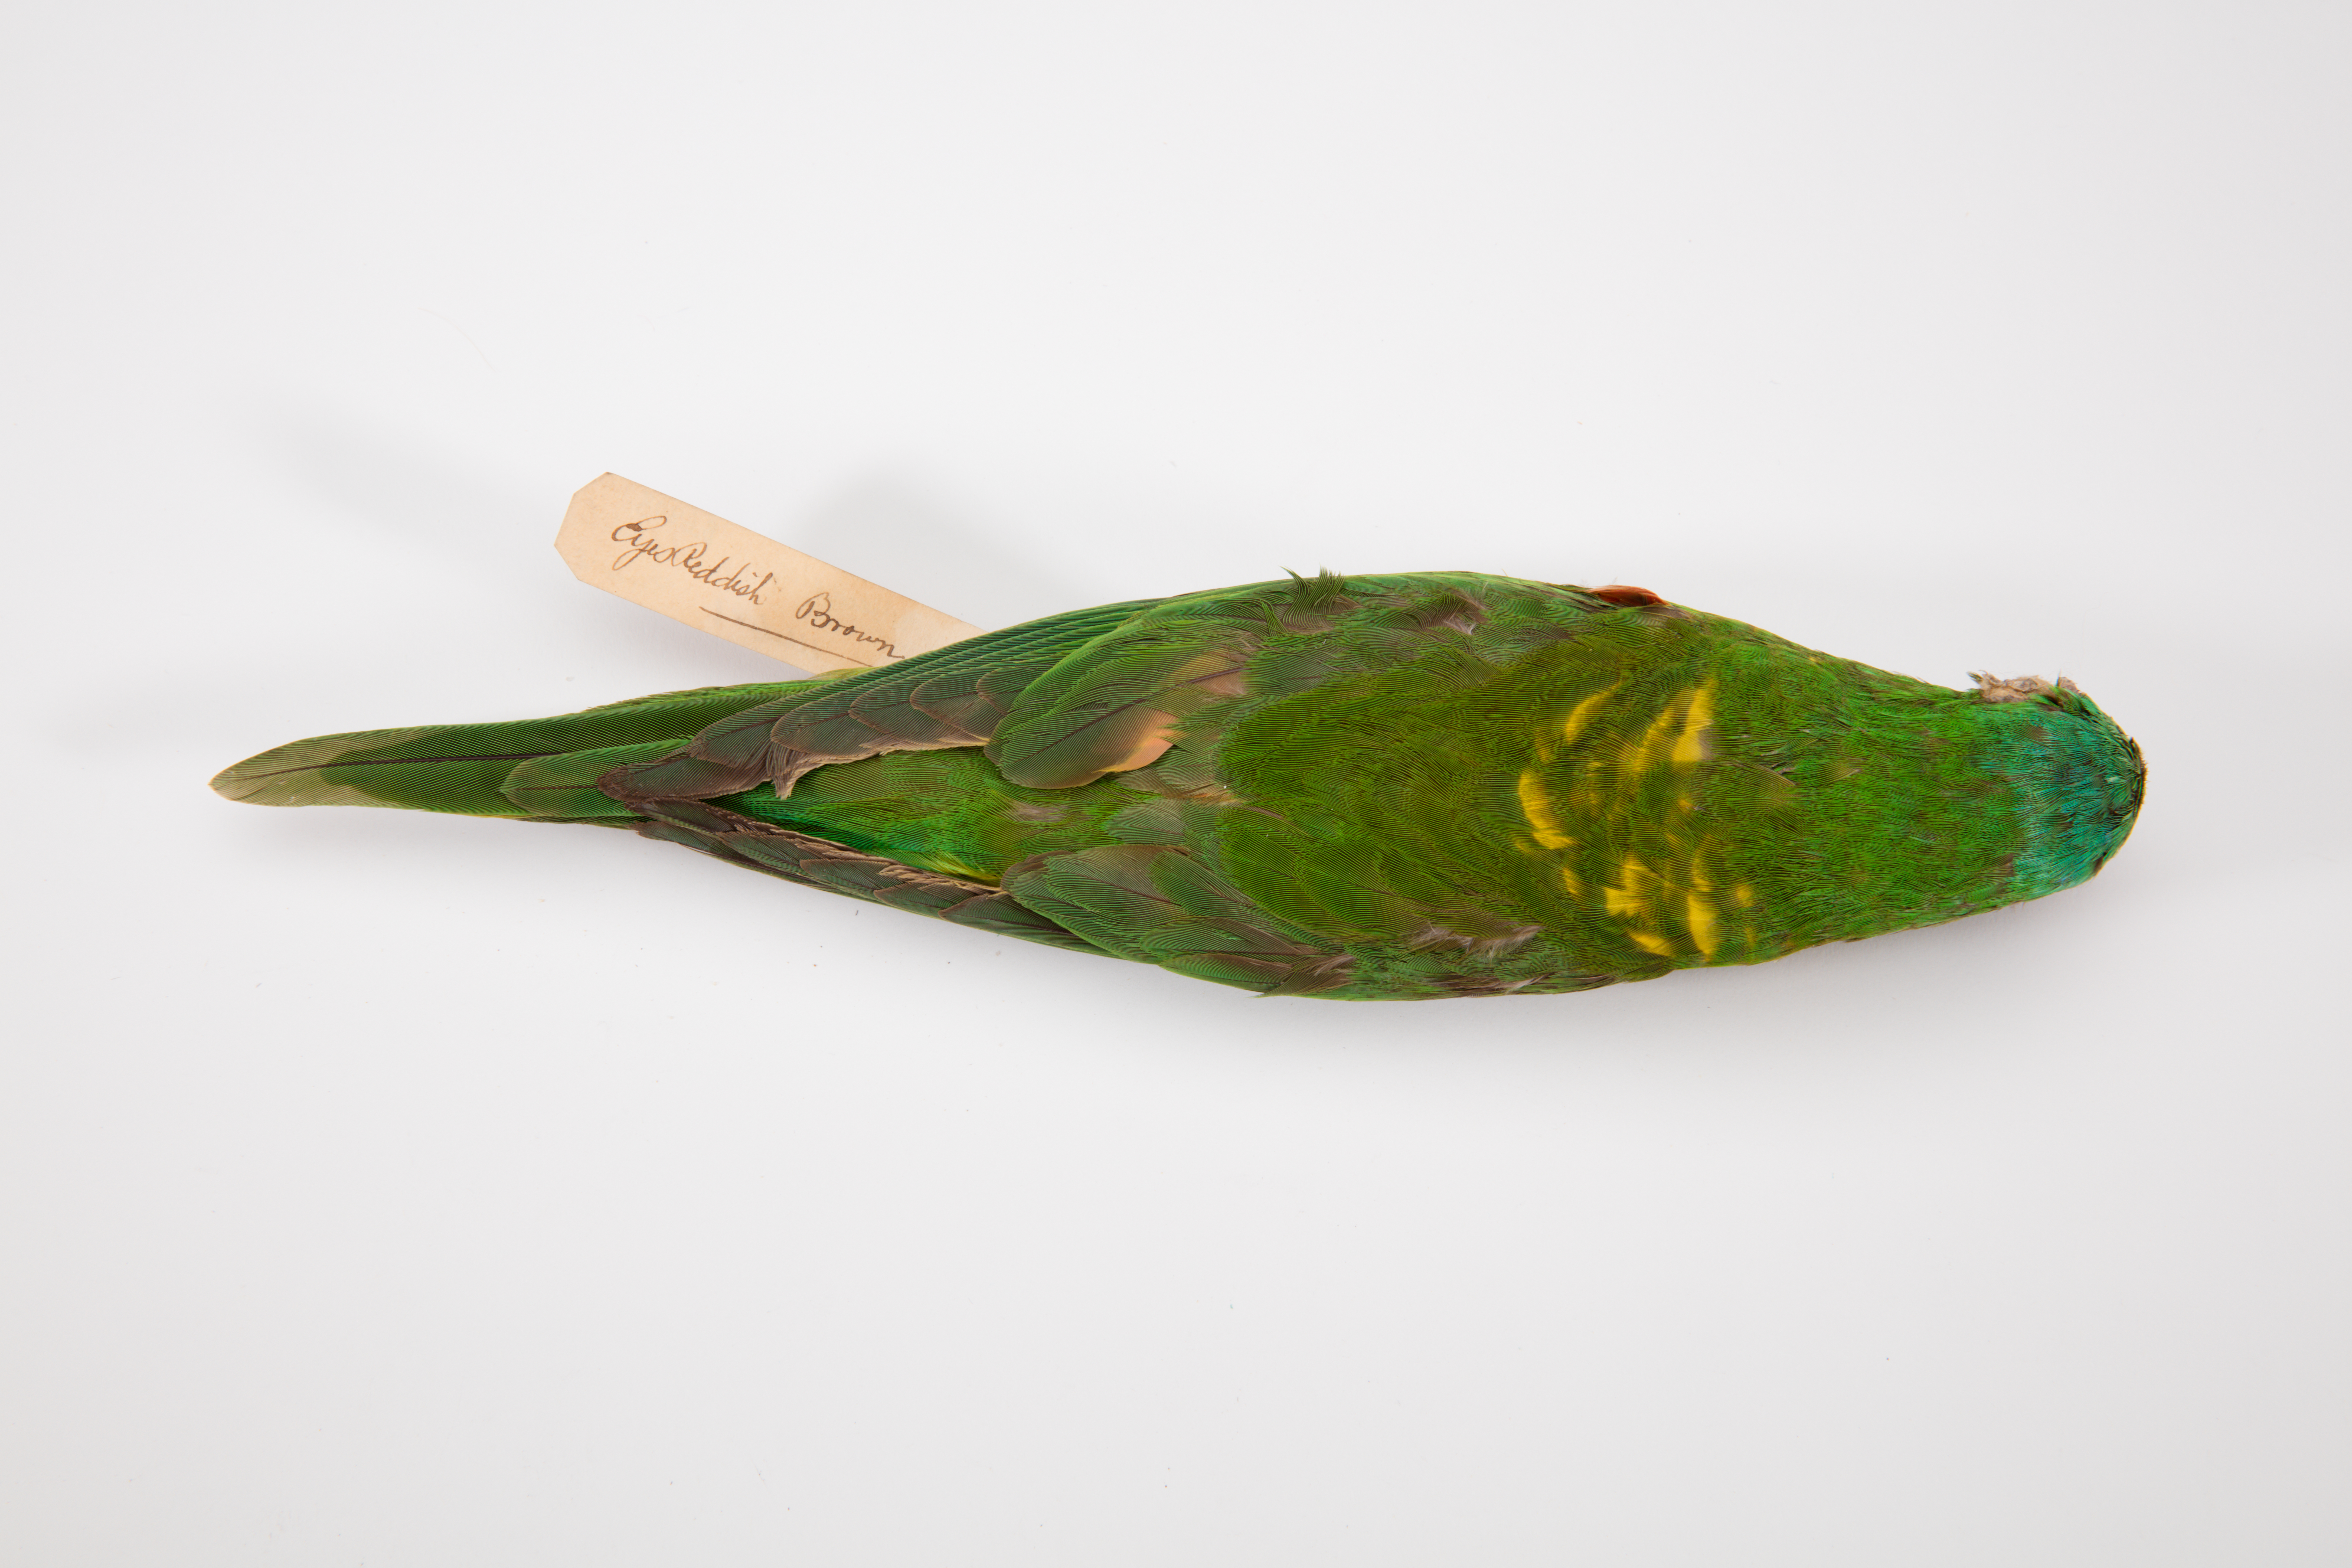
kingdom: Animalia
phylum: Chordata
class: Aves
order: Psittaciformes
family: Psittacidae
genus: Trichoglossus
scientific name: Trichoglossus chlorolepidotus
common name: Scaly-breasted lorikeet
